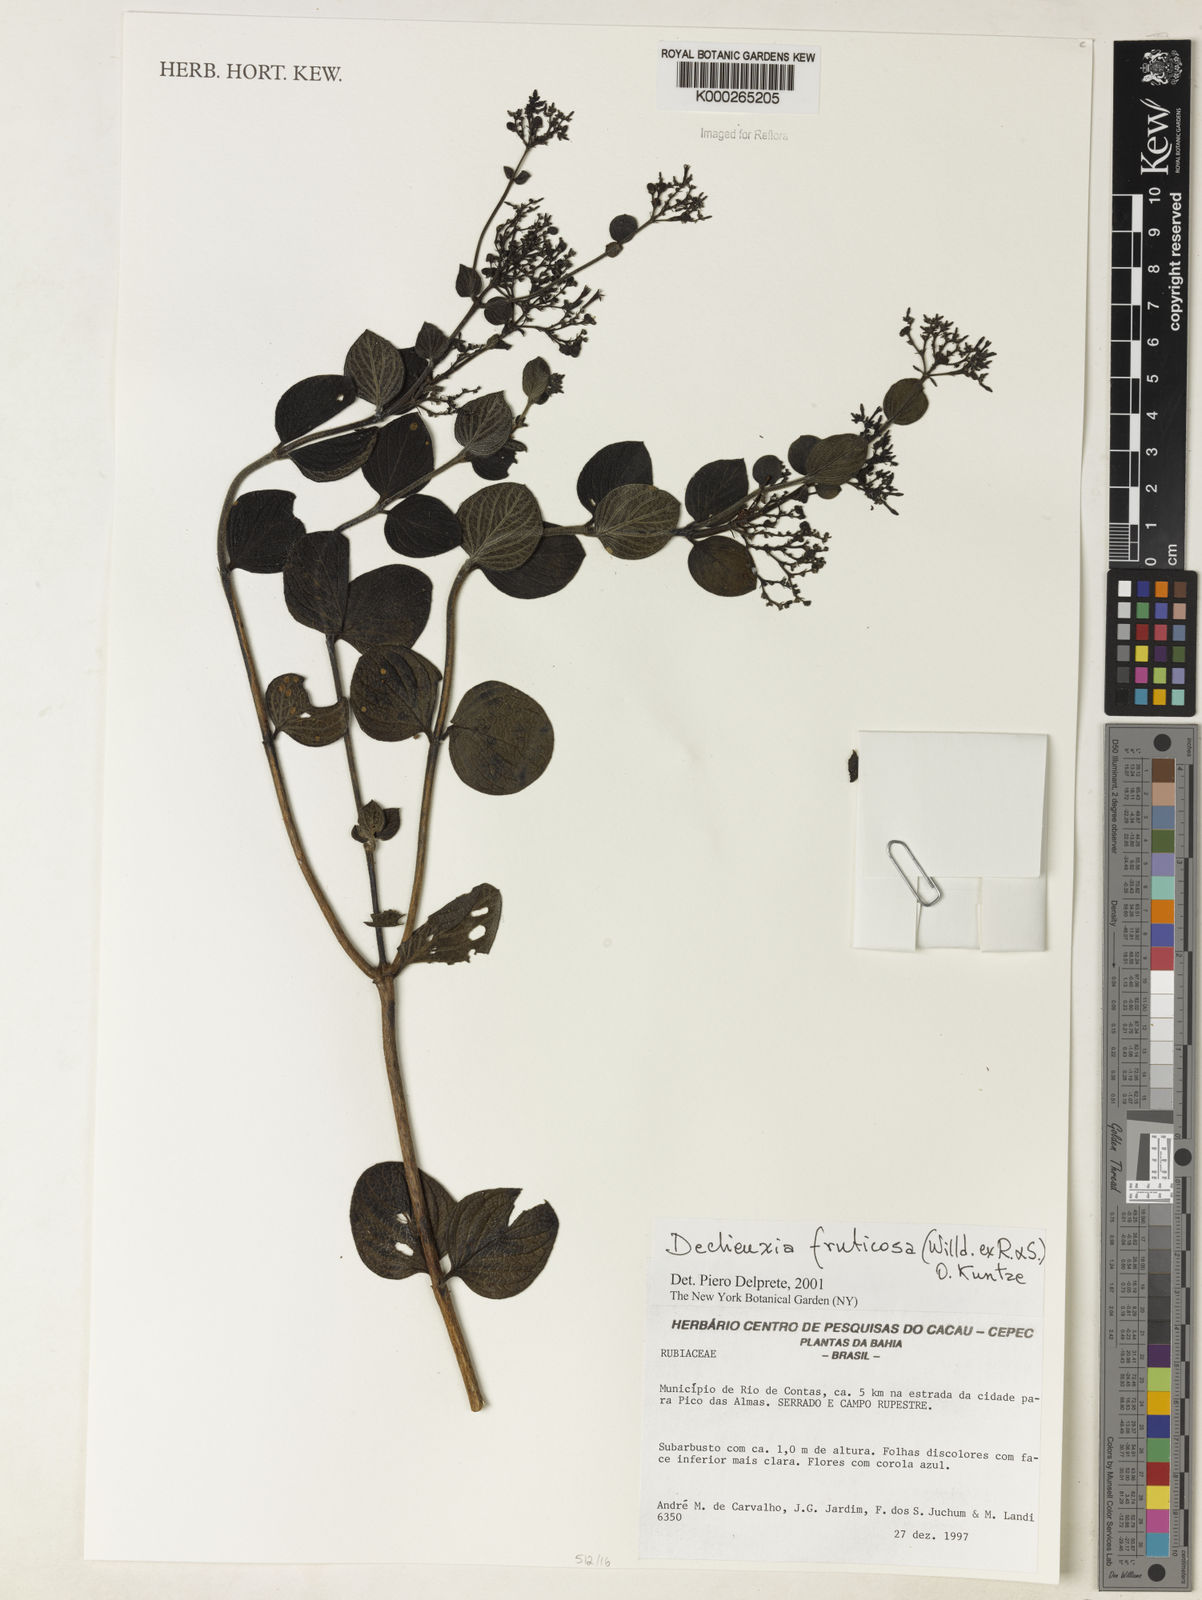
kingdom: Plantae
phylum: Tracheophyta
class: Magnoliopsida
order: Gentianales
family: Rubiaceae
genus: Declieuxia
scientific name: Declieuxia fruticosa
